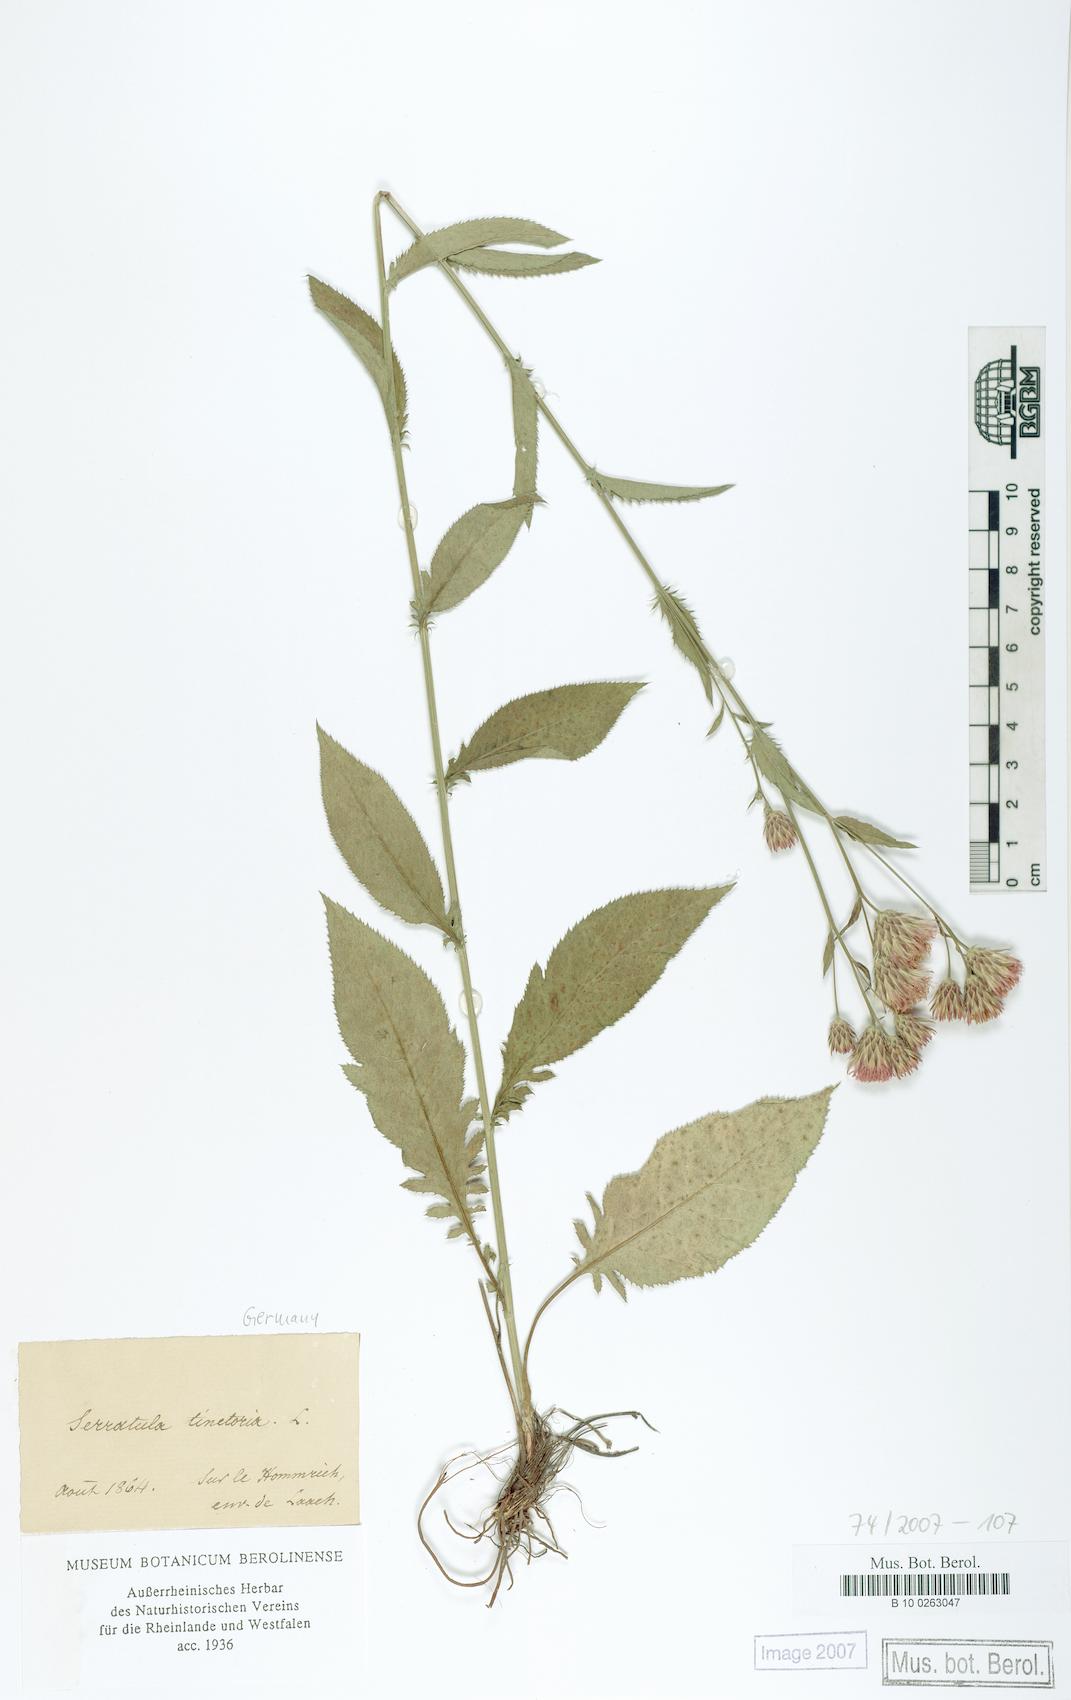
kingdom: Plantae
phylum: Tracheophyta
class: Magnoliopsida
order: Asterales
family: Asteraceae
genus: Serratula
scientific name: Serratula tinctoria
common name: Saw-wort
